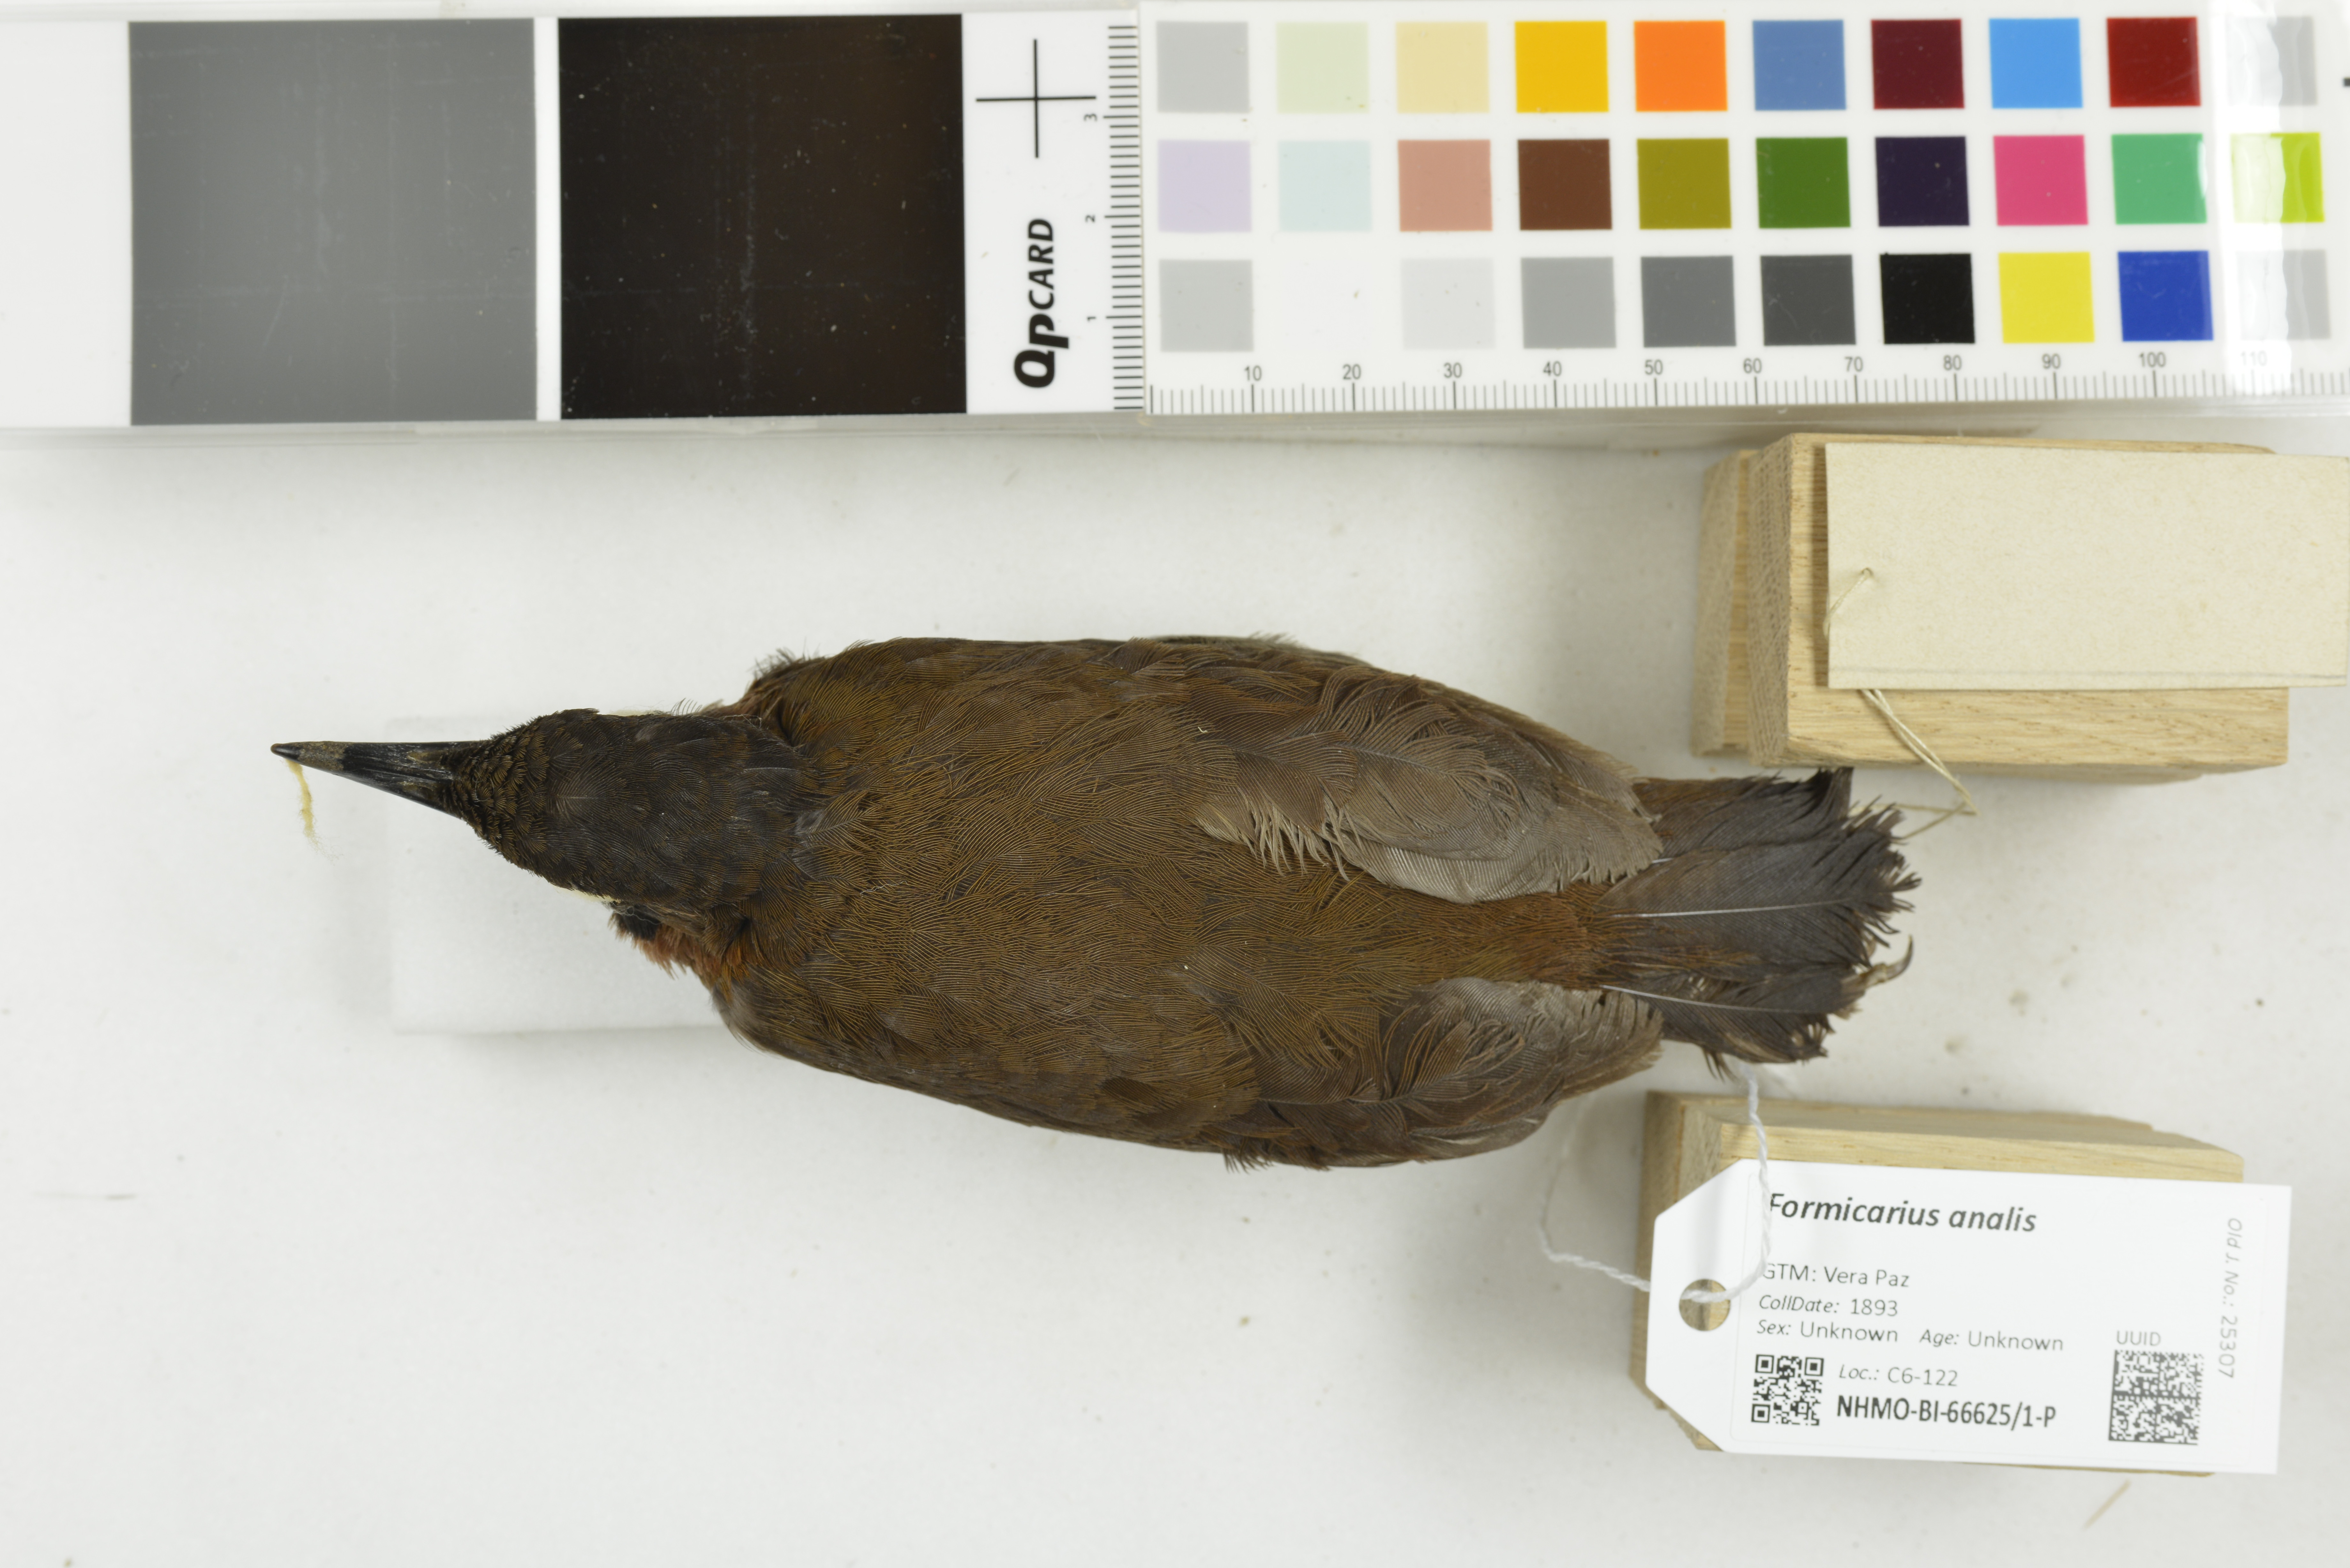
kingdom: Animalia
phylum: Chordata
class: Aves
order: Passeriformes
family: Formicariidae
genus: Formicarius
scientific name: Formicarius analis
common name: Black-faced antthrush
